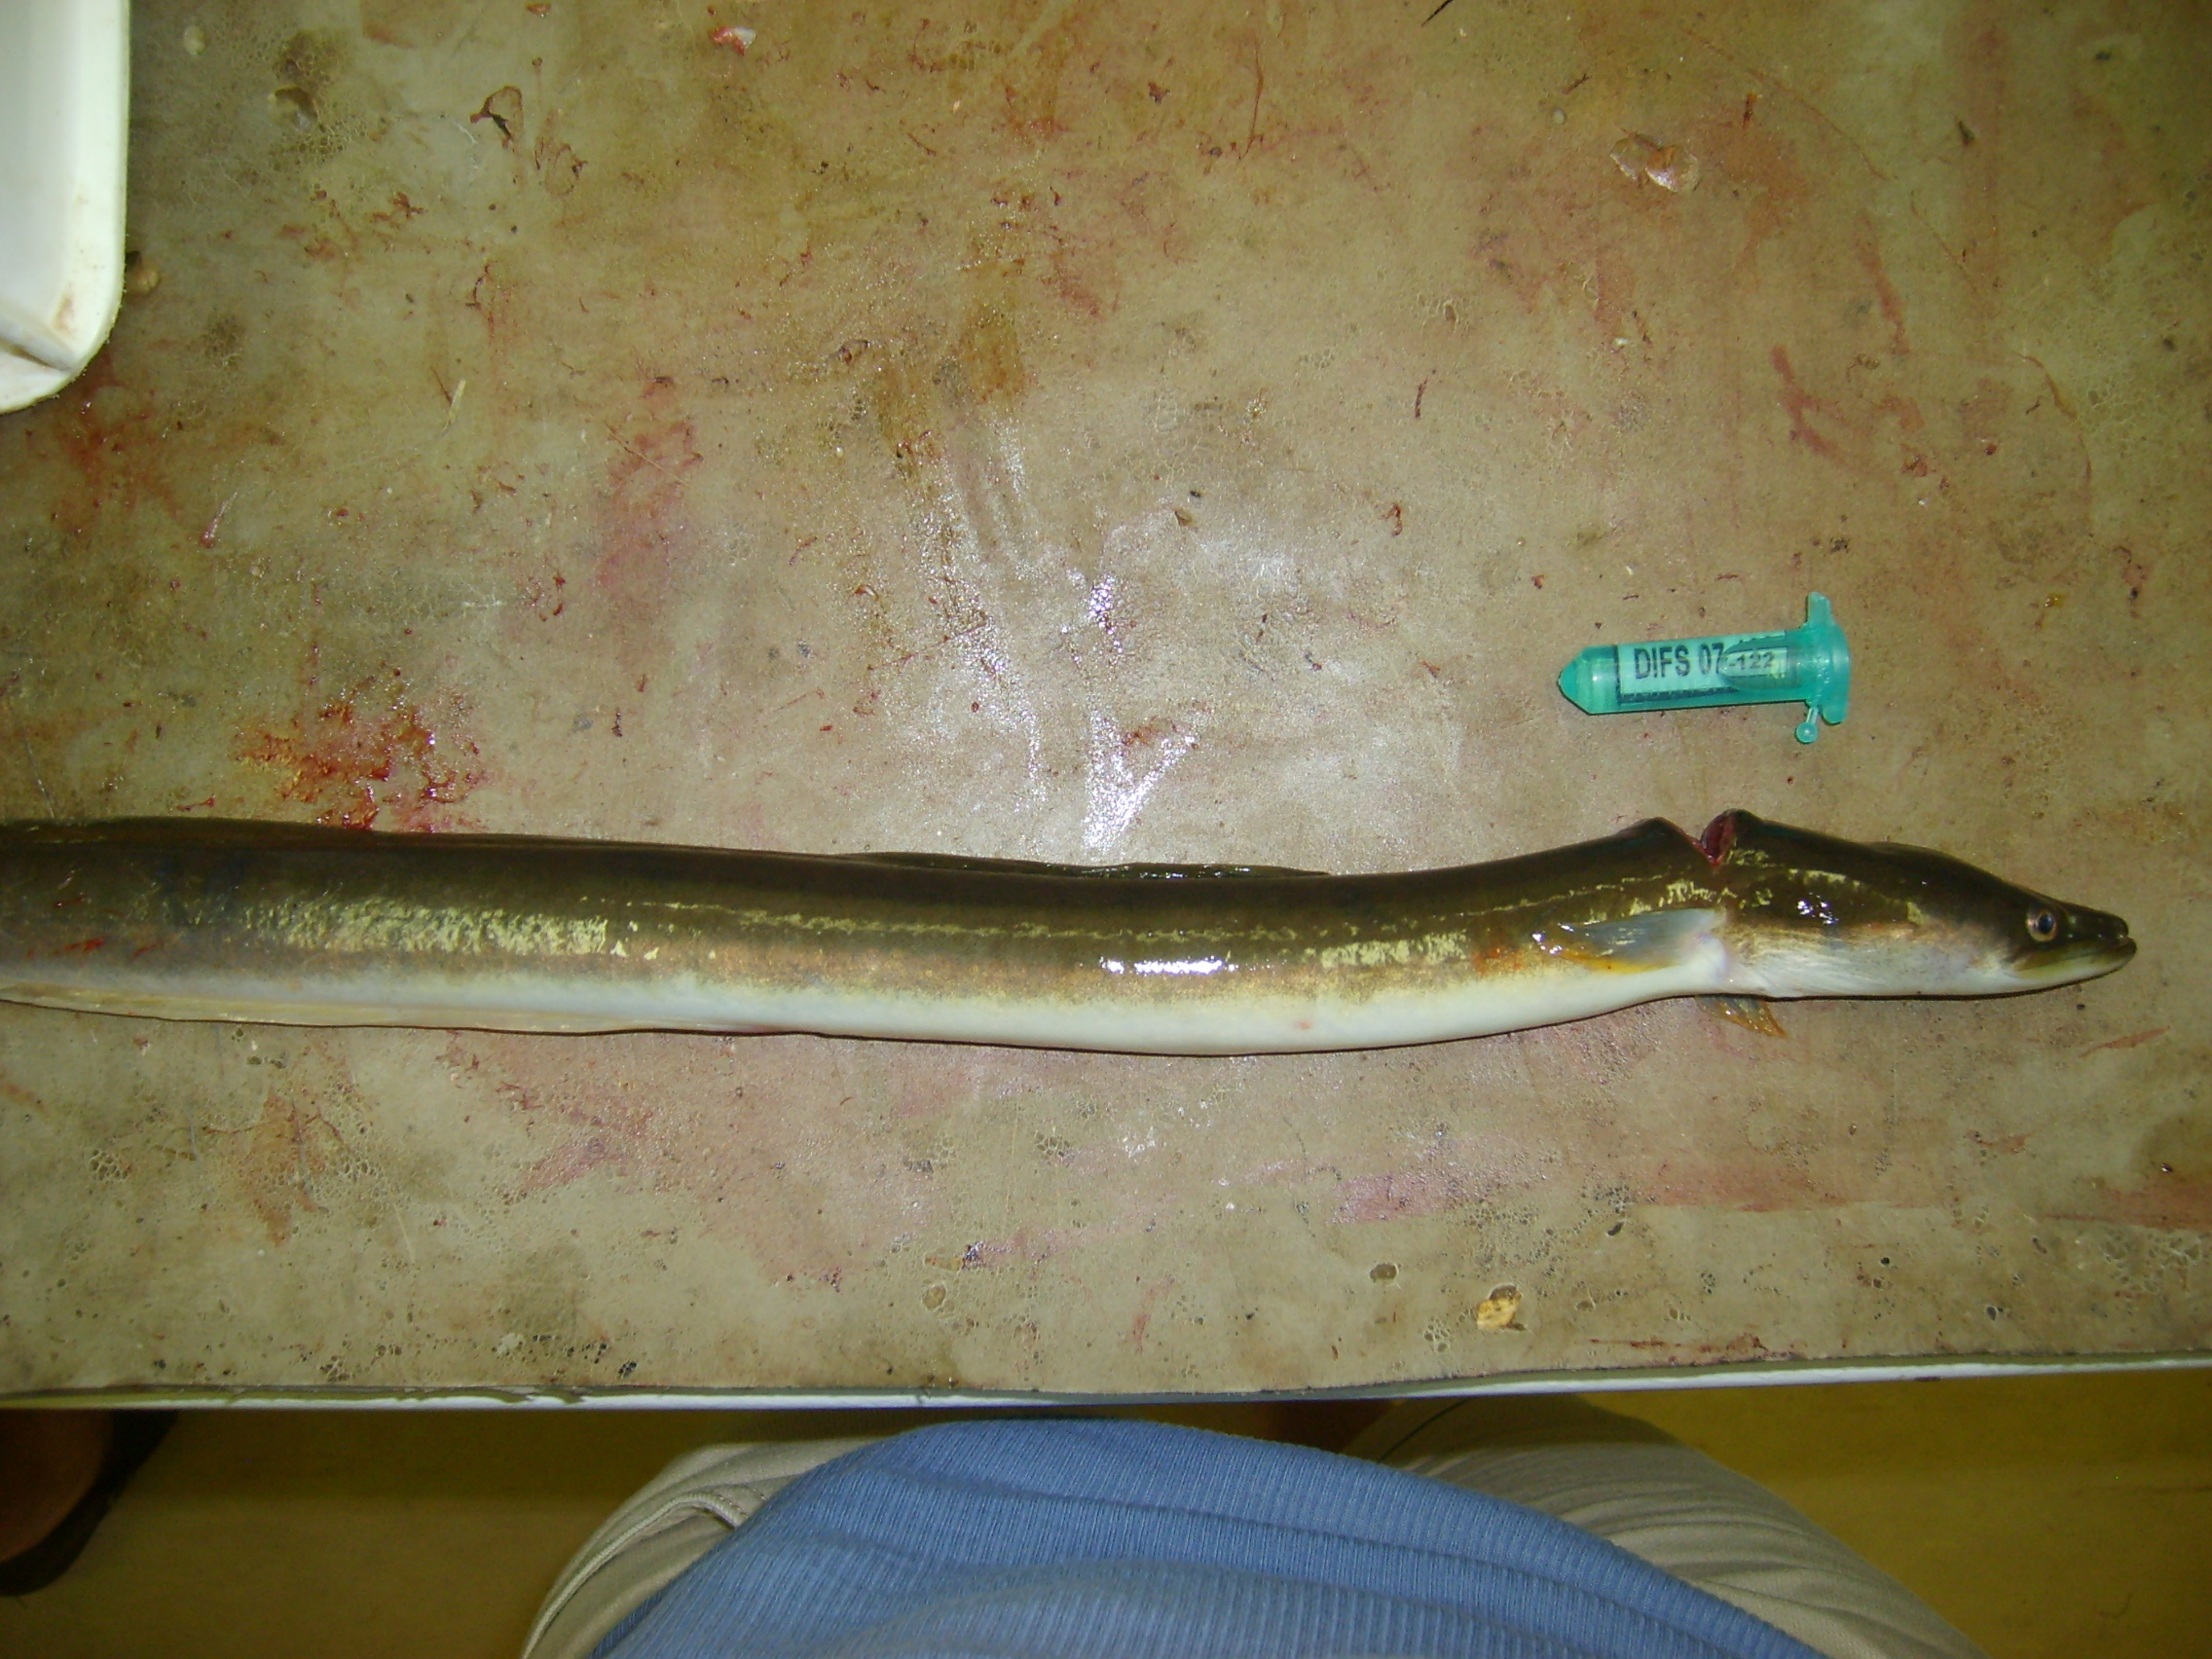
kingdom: Animalia
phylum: Chordata
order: Anguilliformes
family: Anguillidae
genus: Anguilla
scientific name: Anguilla mossambica
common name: African longfin eel
